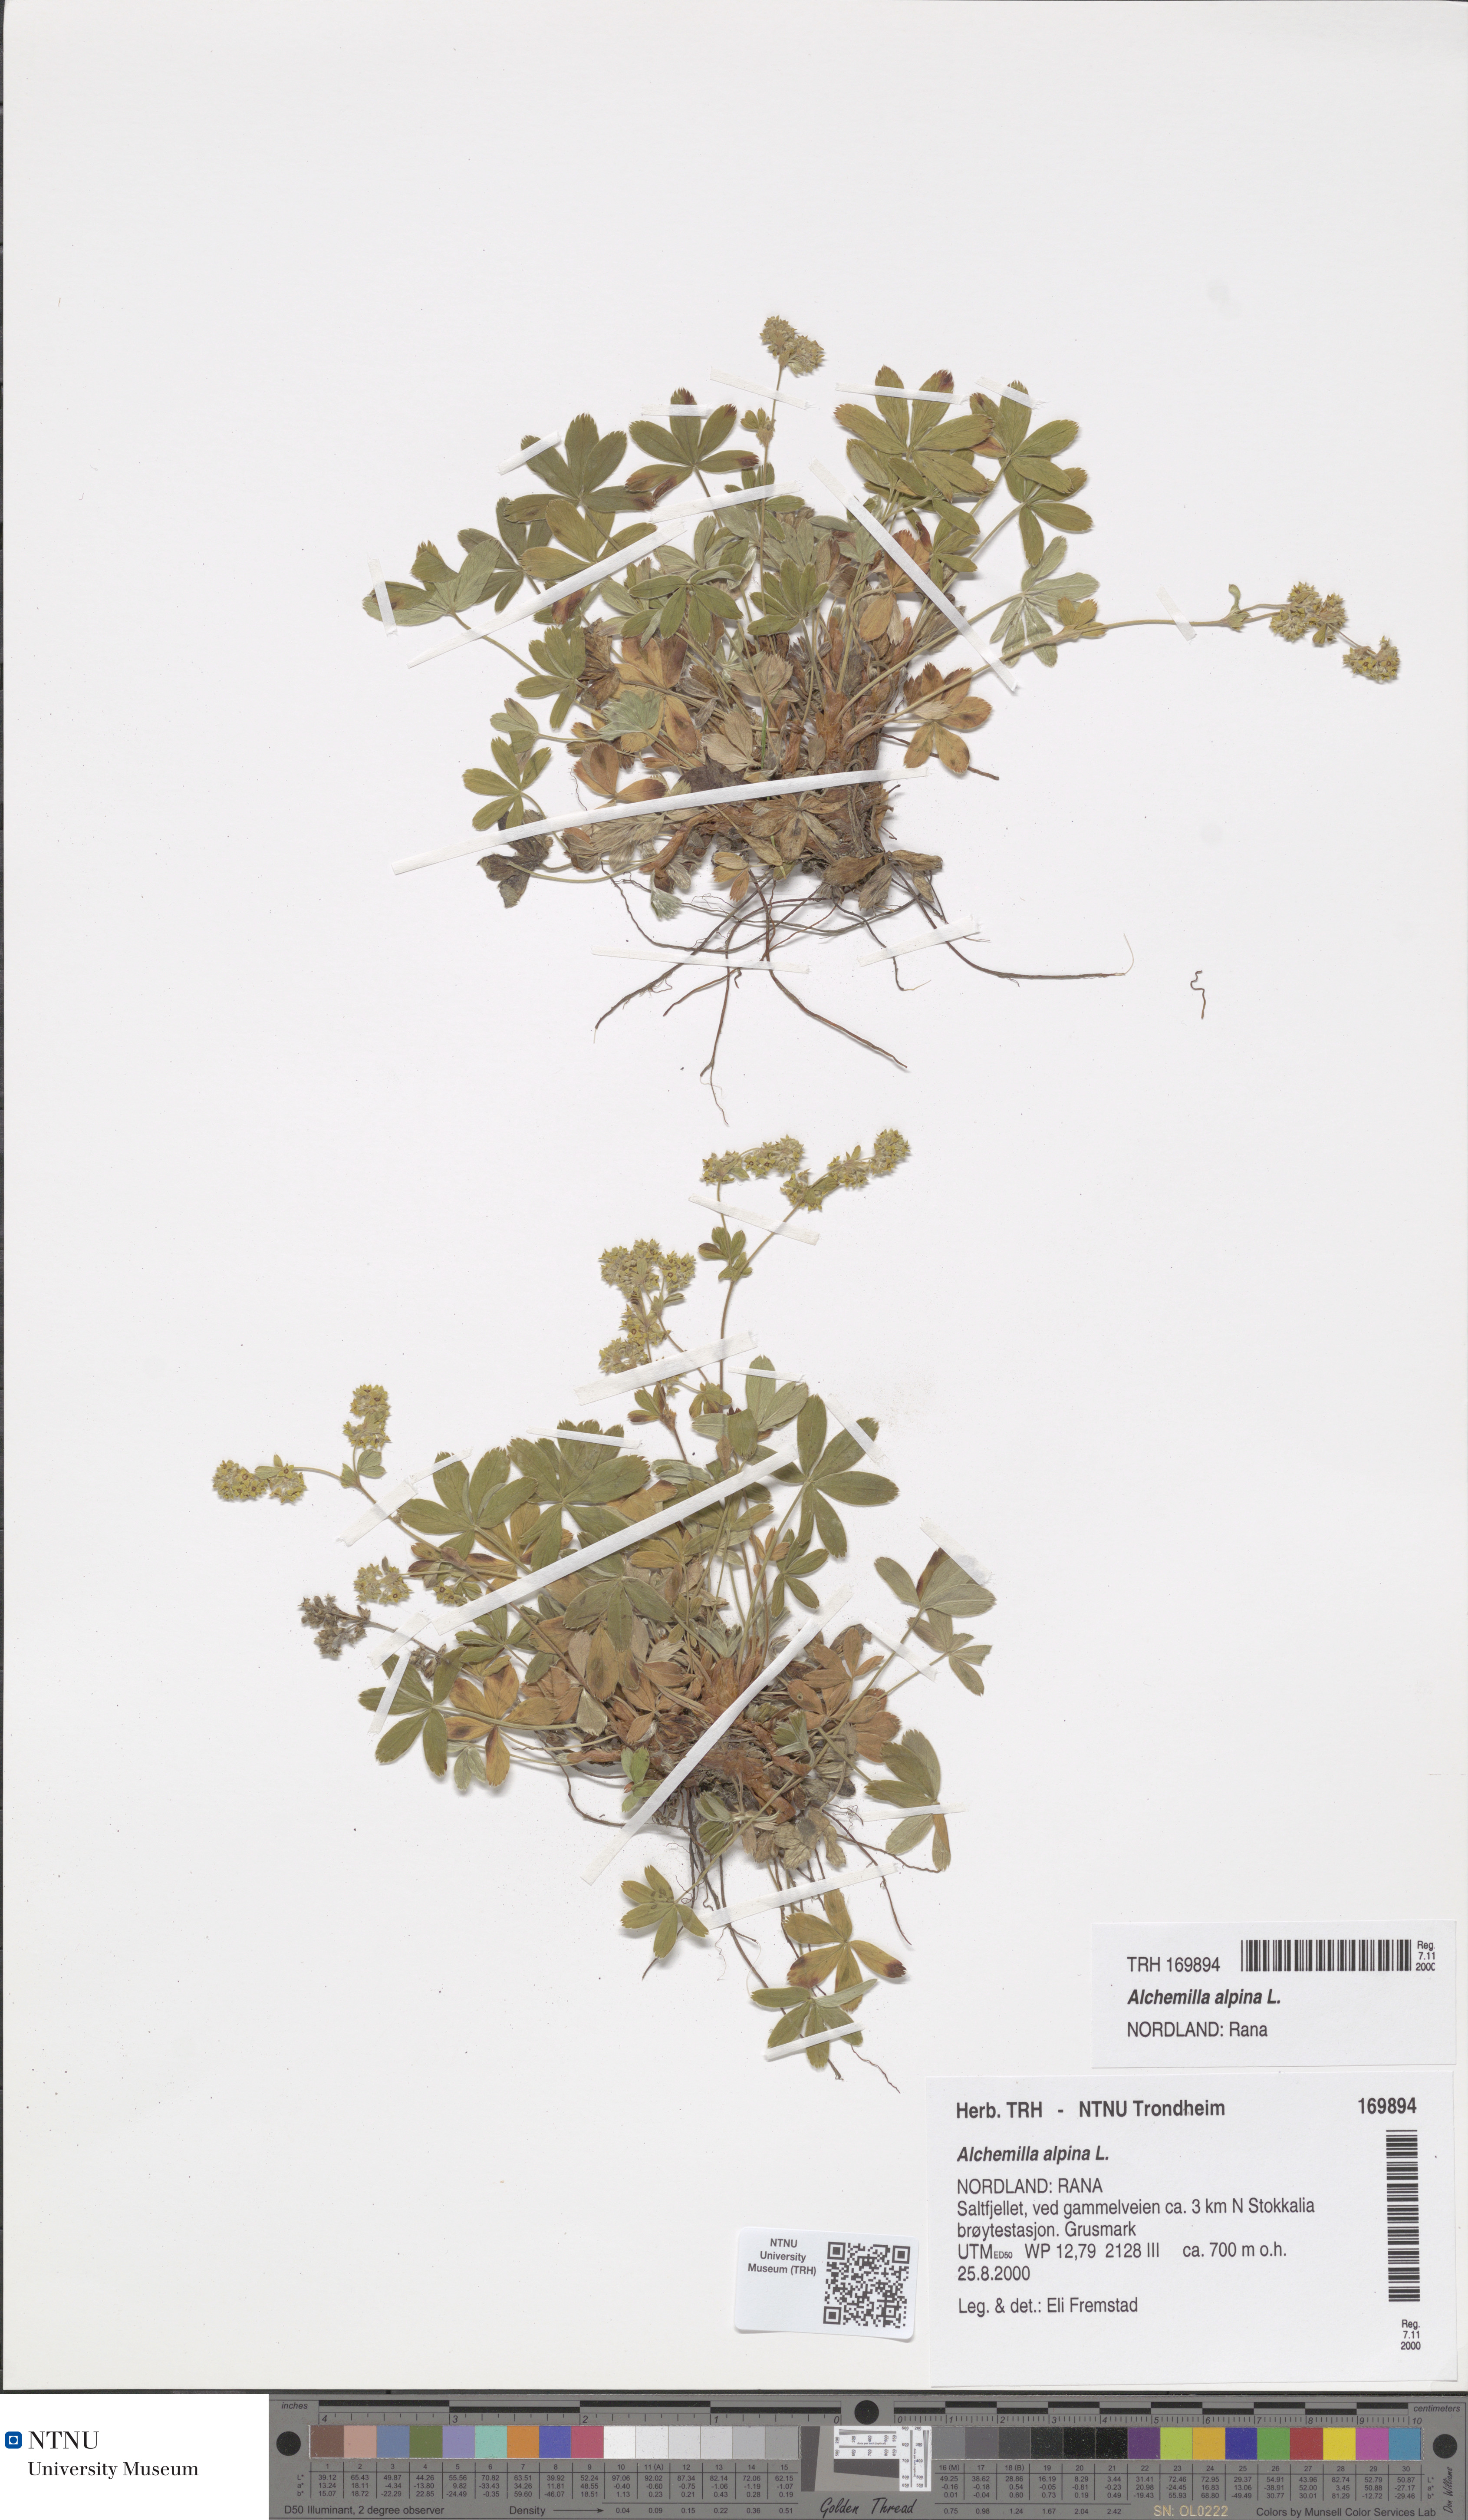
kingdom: Plantae
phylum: Tracheophyta
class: Magnoliopsida
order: Rosales
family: Rosaceae
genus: Alchemilla
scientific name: Alchemilla alpina
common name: Alpine lady's-mantle
